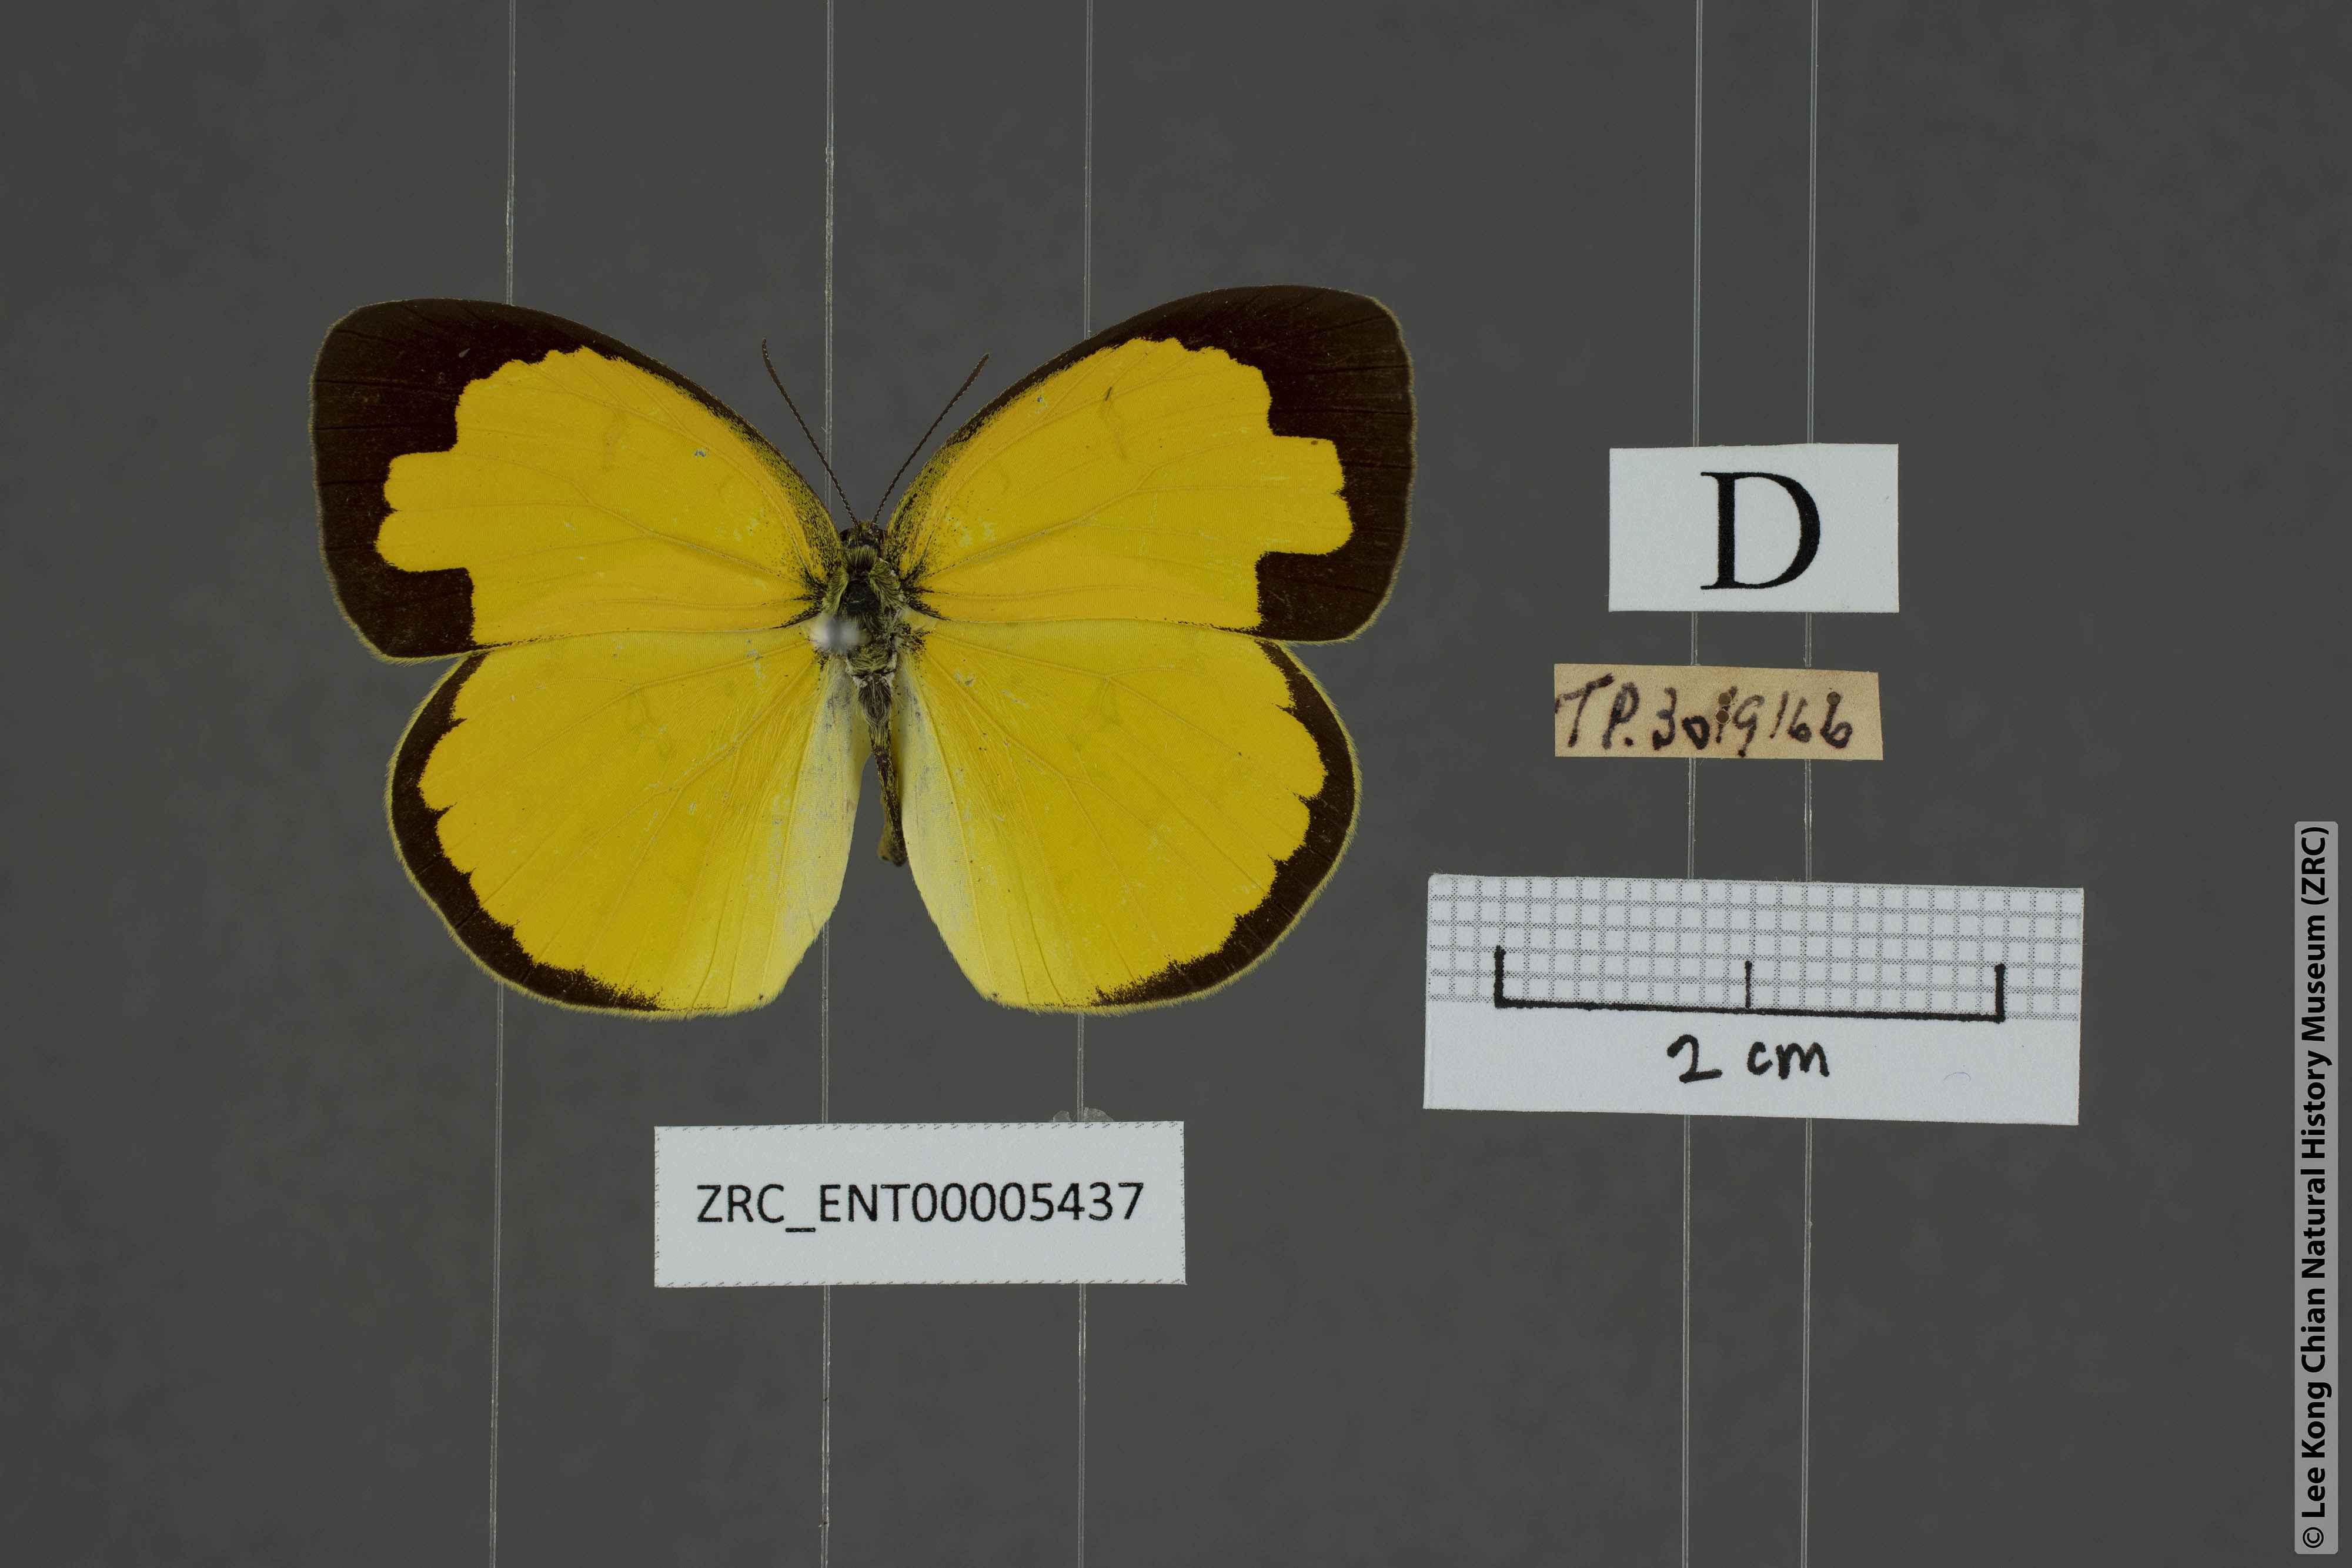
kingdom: Animalia
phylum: Arthropoda
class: Insecta
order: Lepidoptera
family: Pieridae
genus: Eurema
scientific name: Eurema hecabe
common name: Pale grass yellow
